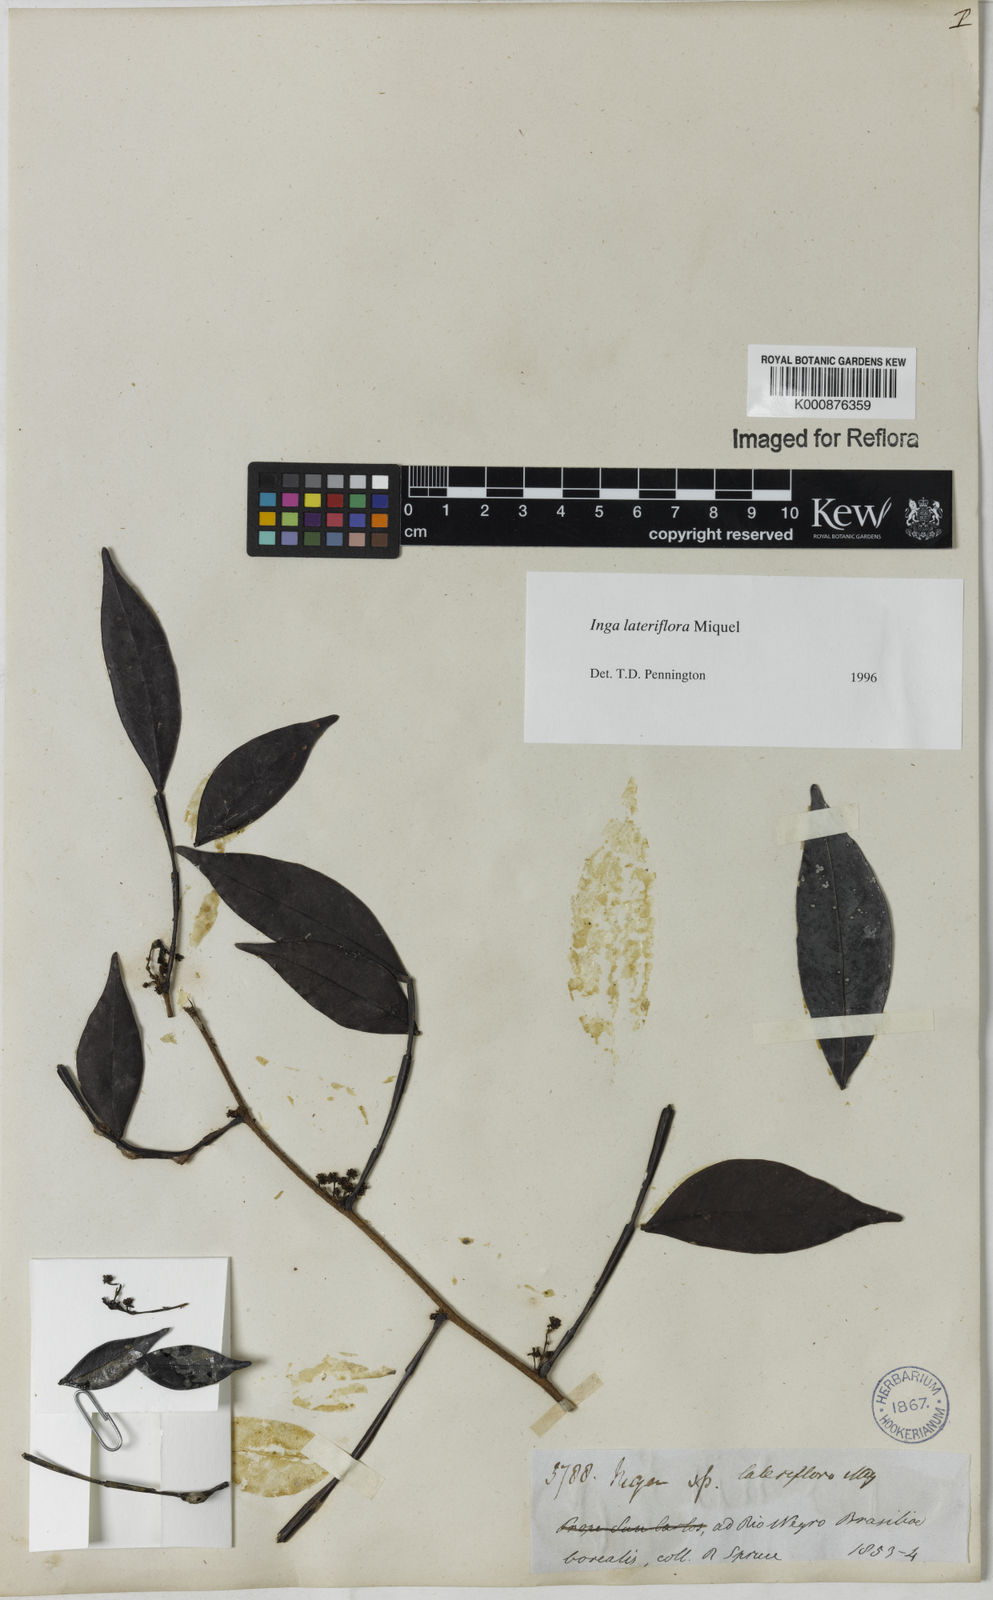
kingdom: Plantae
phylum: Tracheophyta
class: Magnoliopsida
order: Fabales
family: Fabaceae
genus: Inga
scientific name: Inga lateriflora
